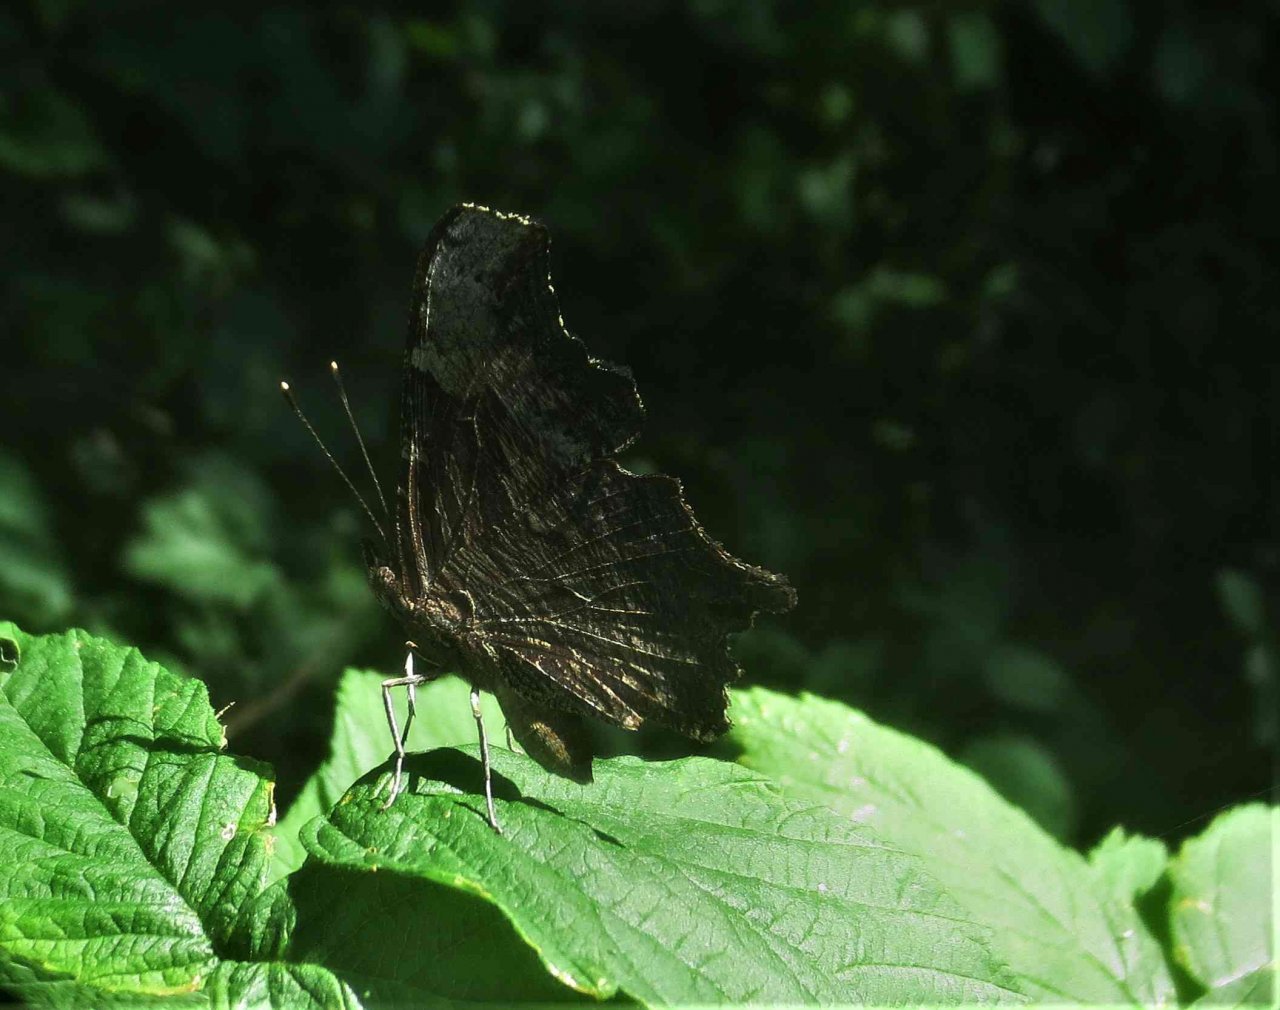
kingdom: Animalia
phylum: Arthropoda
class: Insecta
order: Lepidoptera
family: Nymphalidae
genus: Polygonia
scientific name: Polygonia progne
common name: Gray Comma
